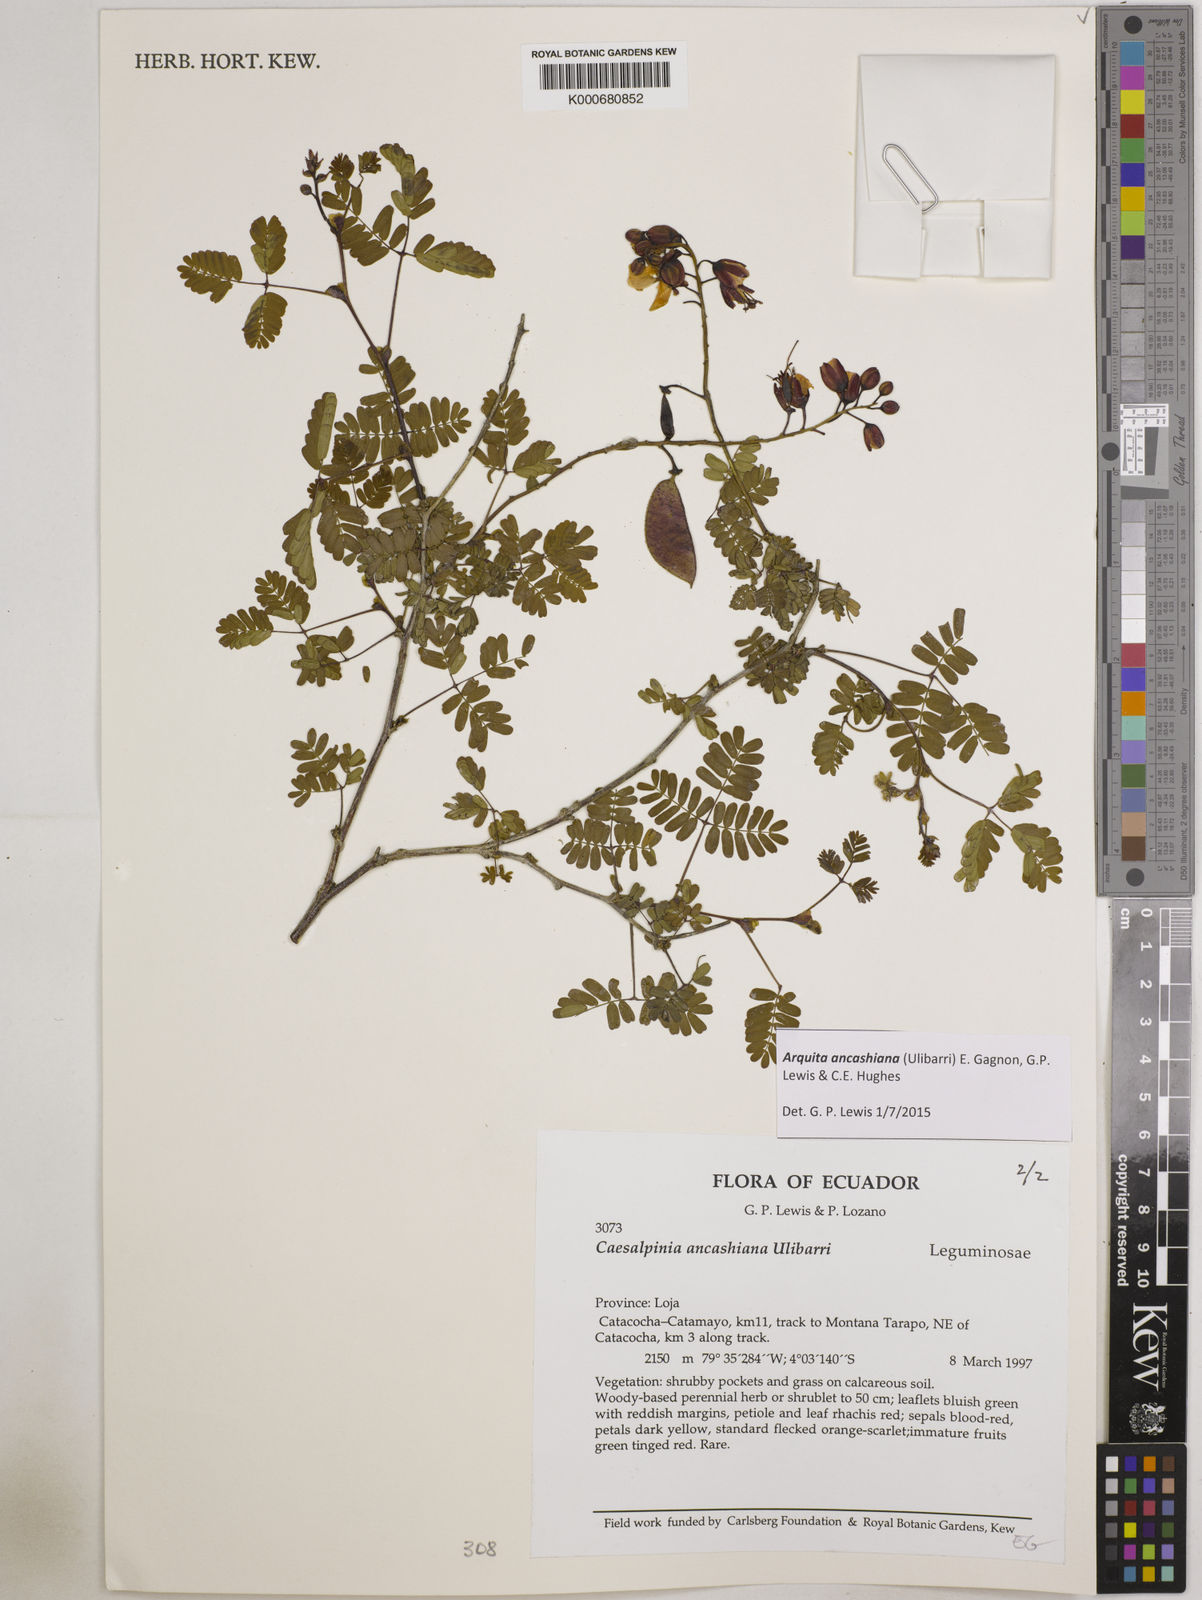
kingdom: Plantae
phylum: Tracheophyta
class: Magnoliopsida
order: Fabales
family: Fabaceae
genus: Arquita
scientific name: Arquita ancashiana
